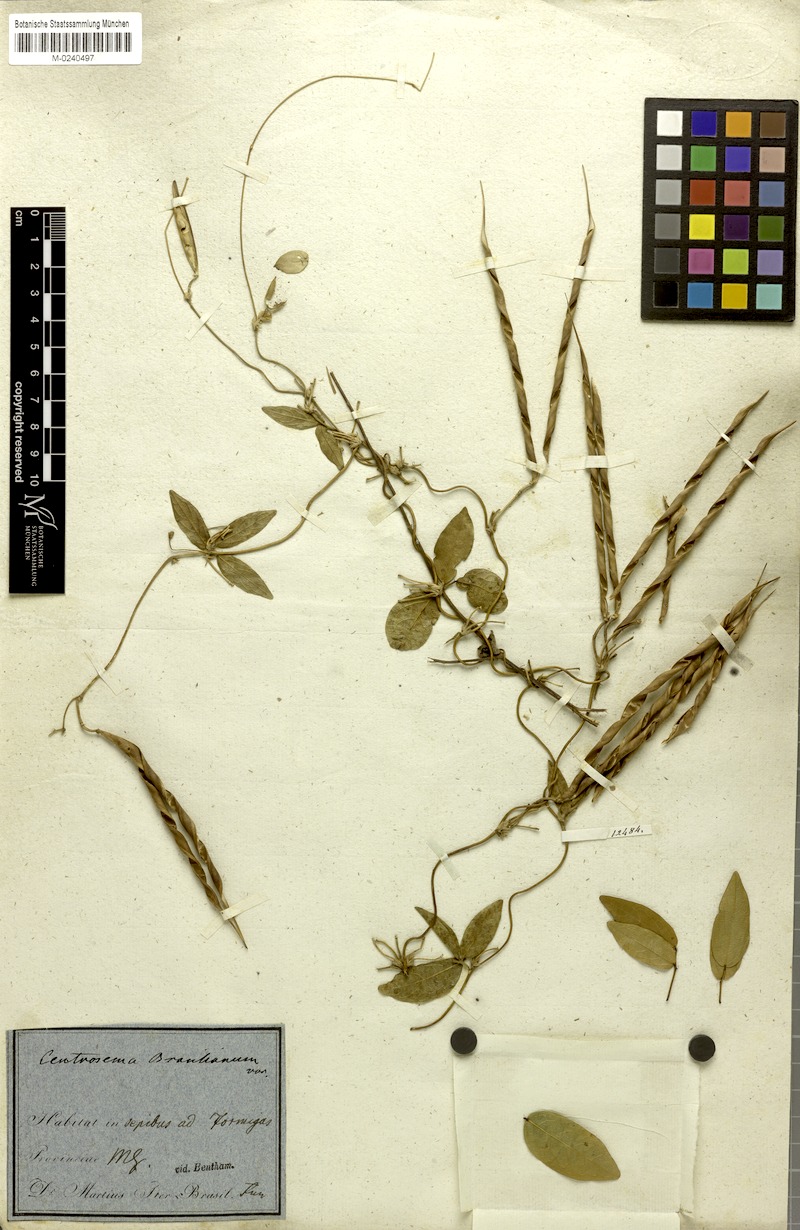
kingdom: Plantae
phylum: Tracheophyta
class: Magnoliopsida
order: Fabales
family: Fabaceae
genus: Centrosema
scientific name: Centrosema brasilianum
